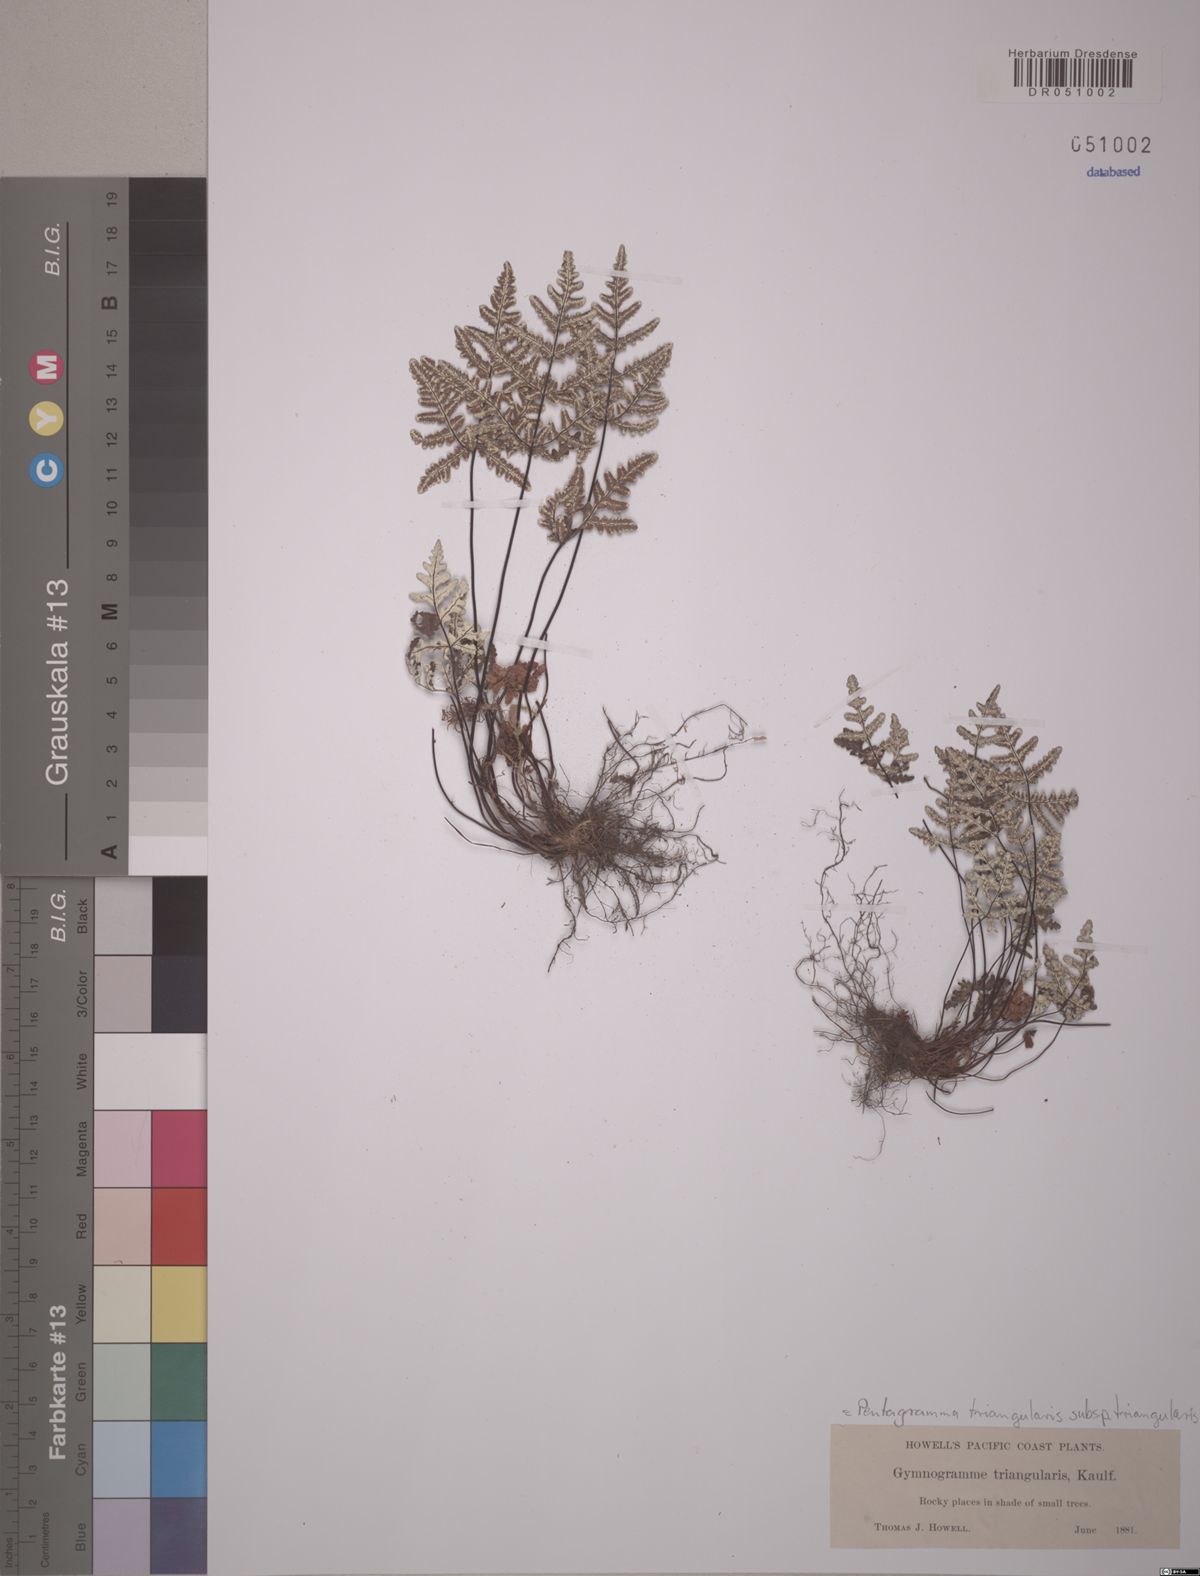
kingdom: Plantae
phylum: Tracheophyta
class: Polypodiopsida
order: Polypodiales
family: Pteridaceae
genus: Pentagramma
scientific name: Pentagramma triangularis
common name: Gold fern
